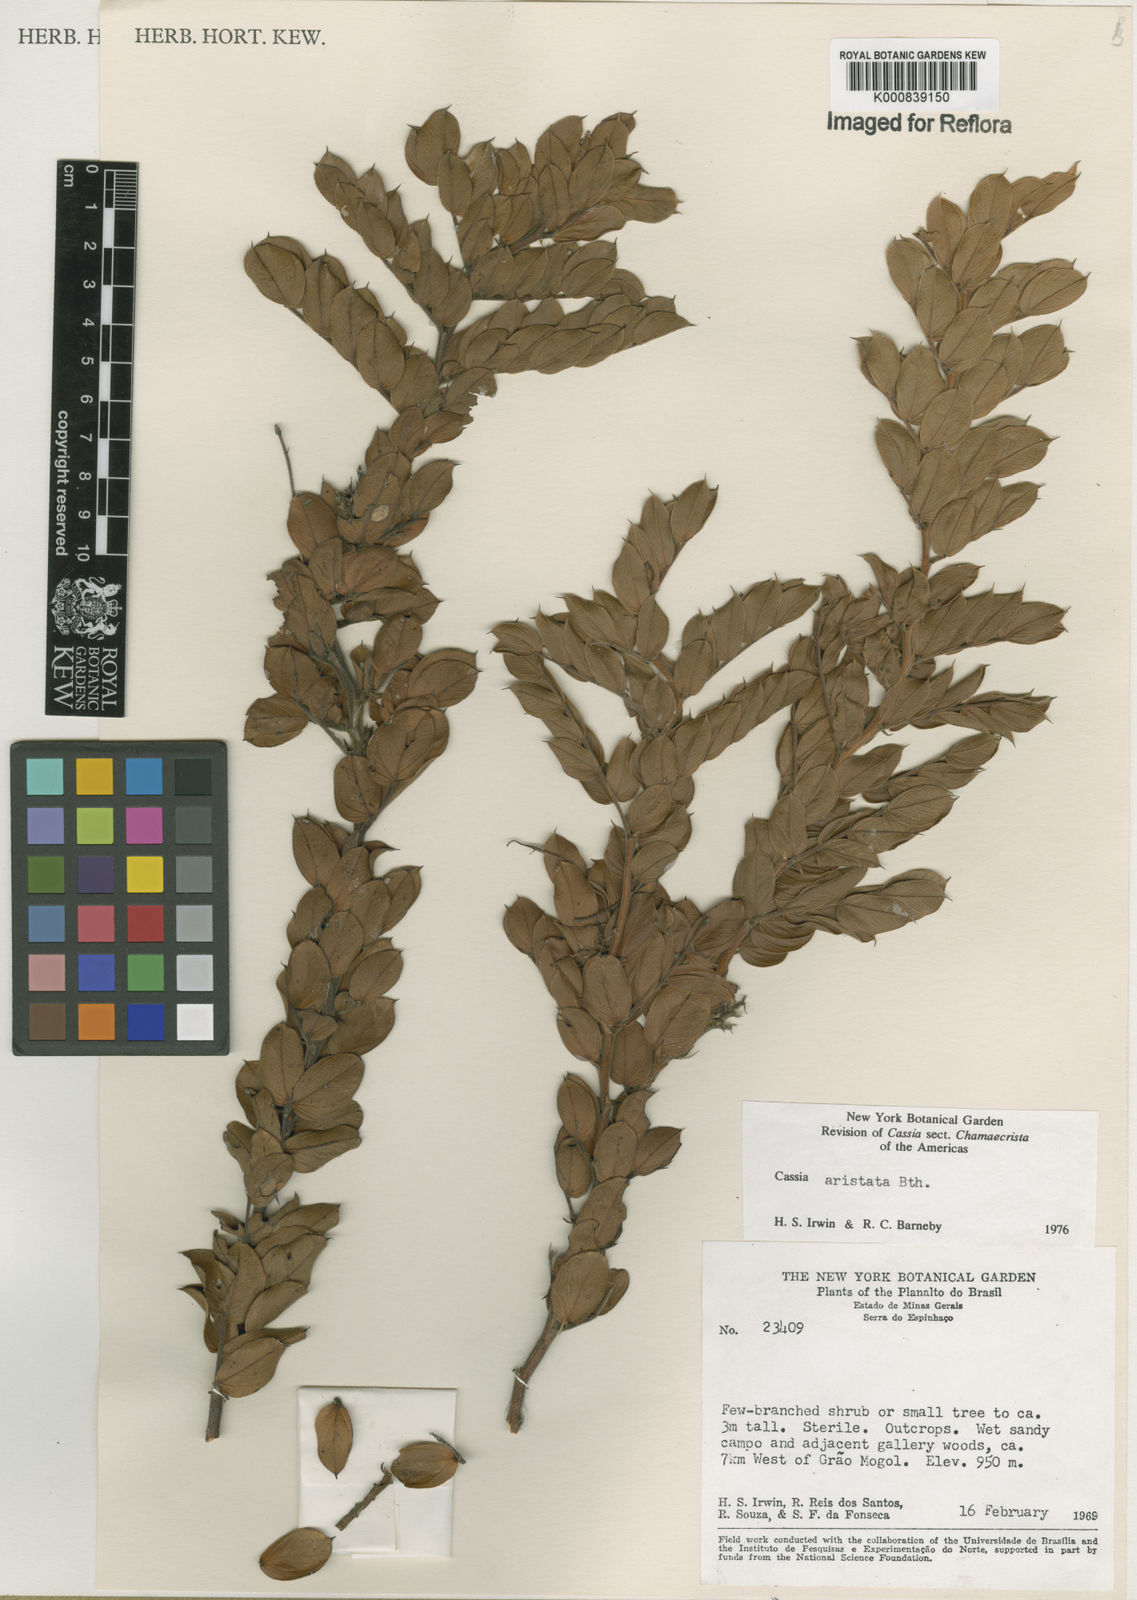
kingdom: Plantae
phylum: Tracheophyta
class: Magnoliopsida
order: Fabales
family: Fabaceae
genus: Chamaecrista
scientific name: Chamaecrista aristata
